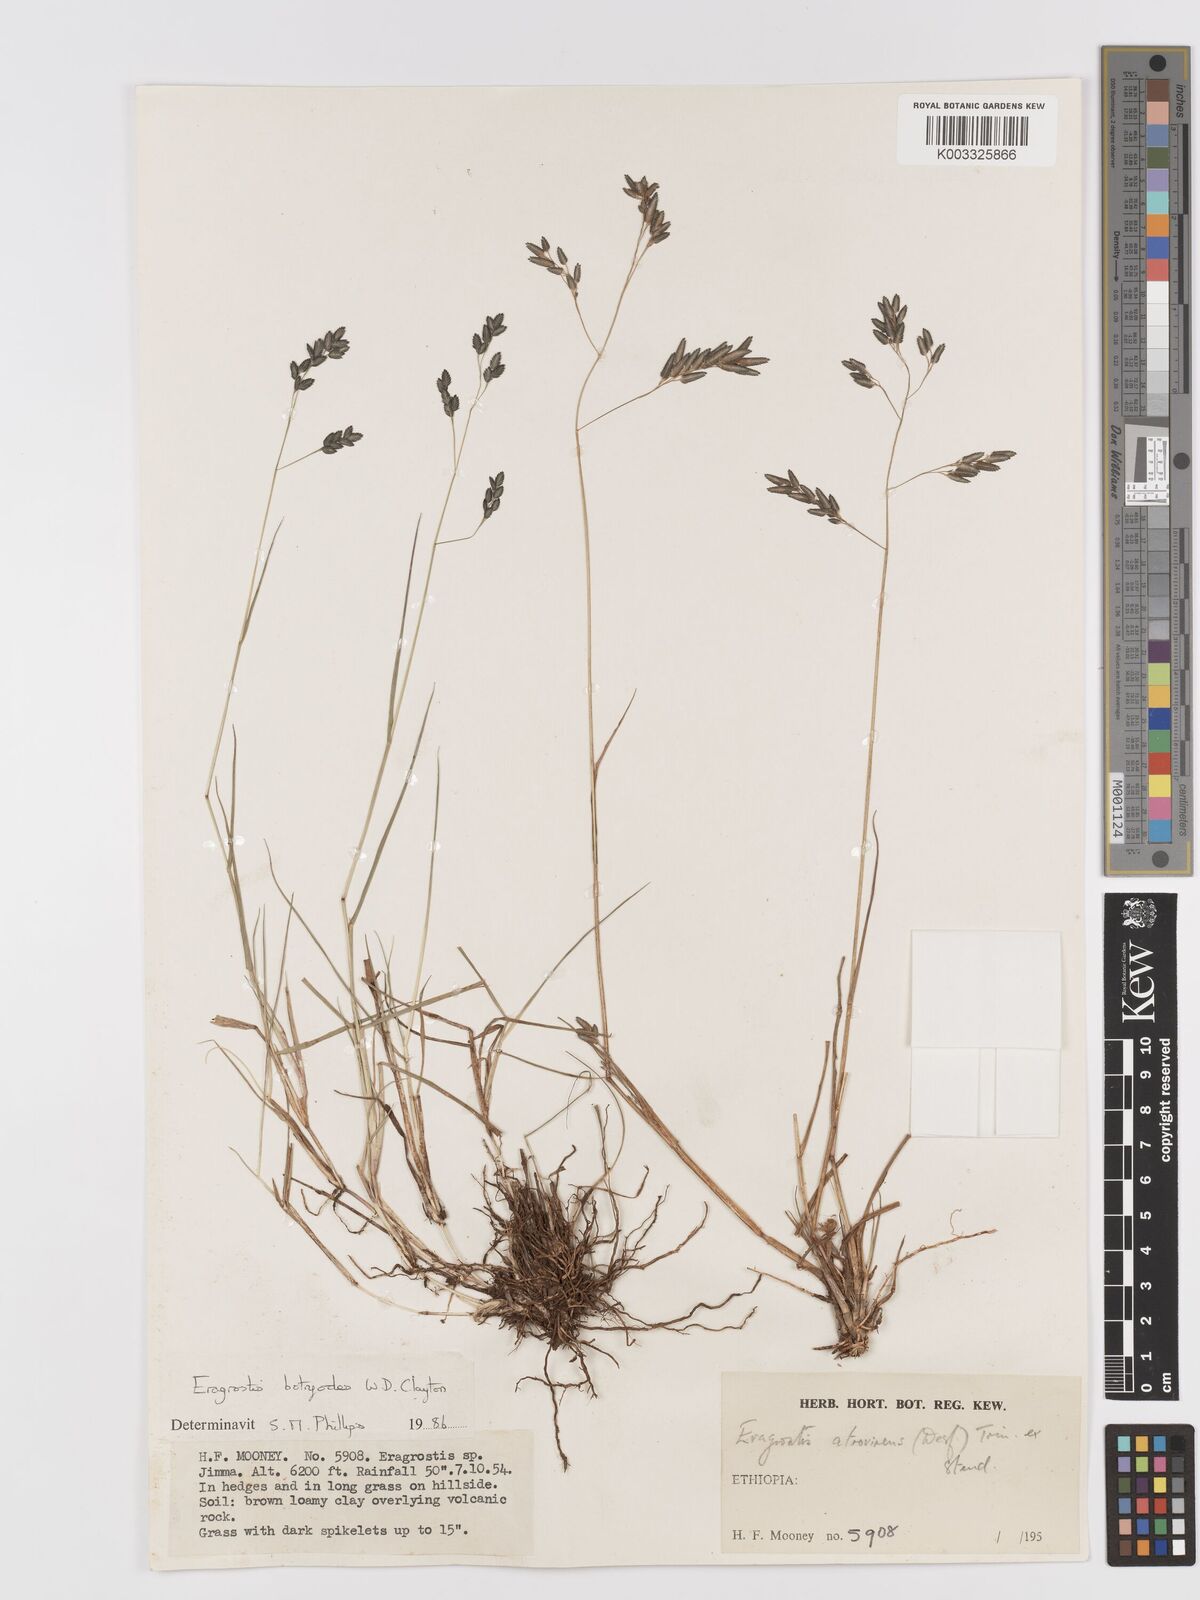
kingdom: Plantae
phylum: Tracheophyta
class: Liliopsida
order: Poales
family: Poaceae
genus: Eragrostis
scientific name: Eragrostis botryodes
